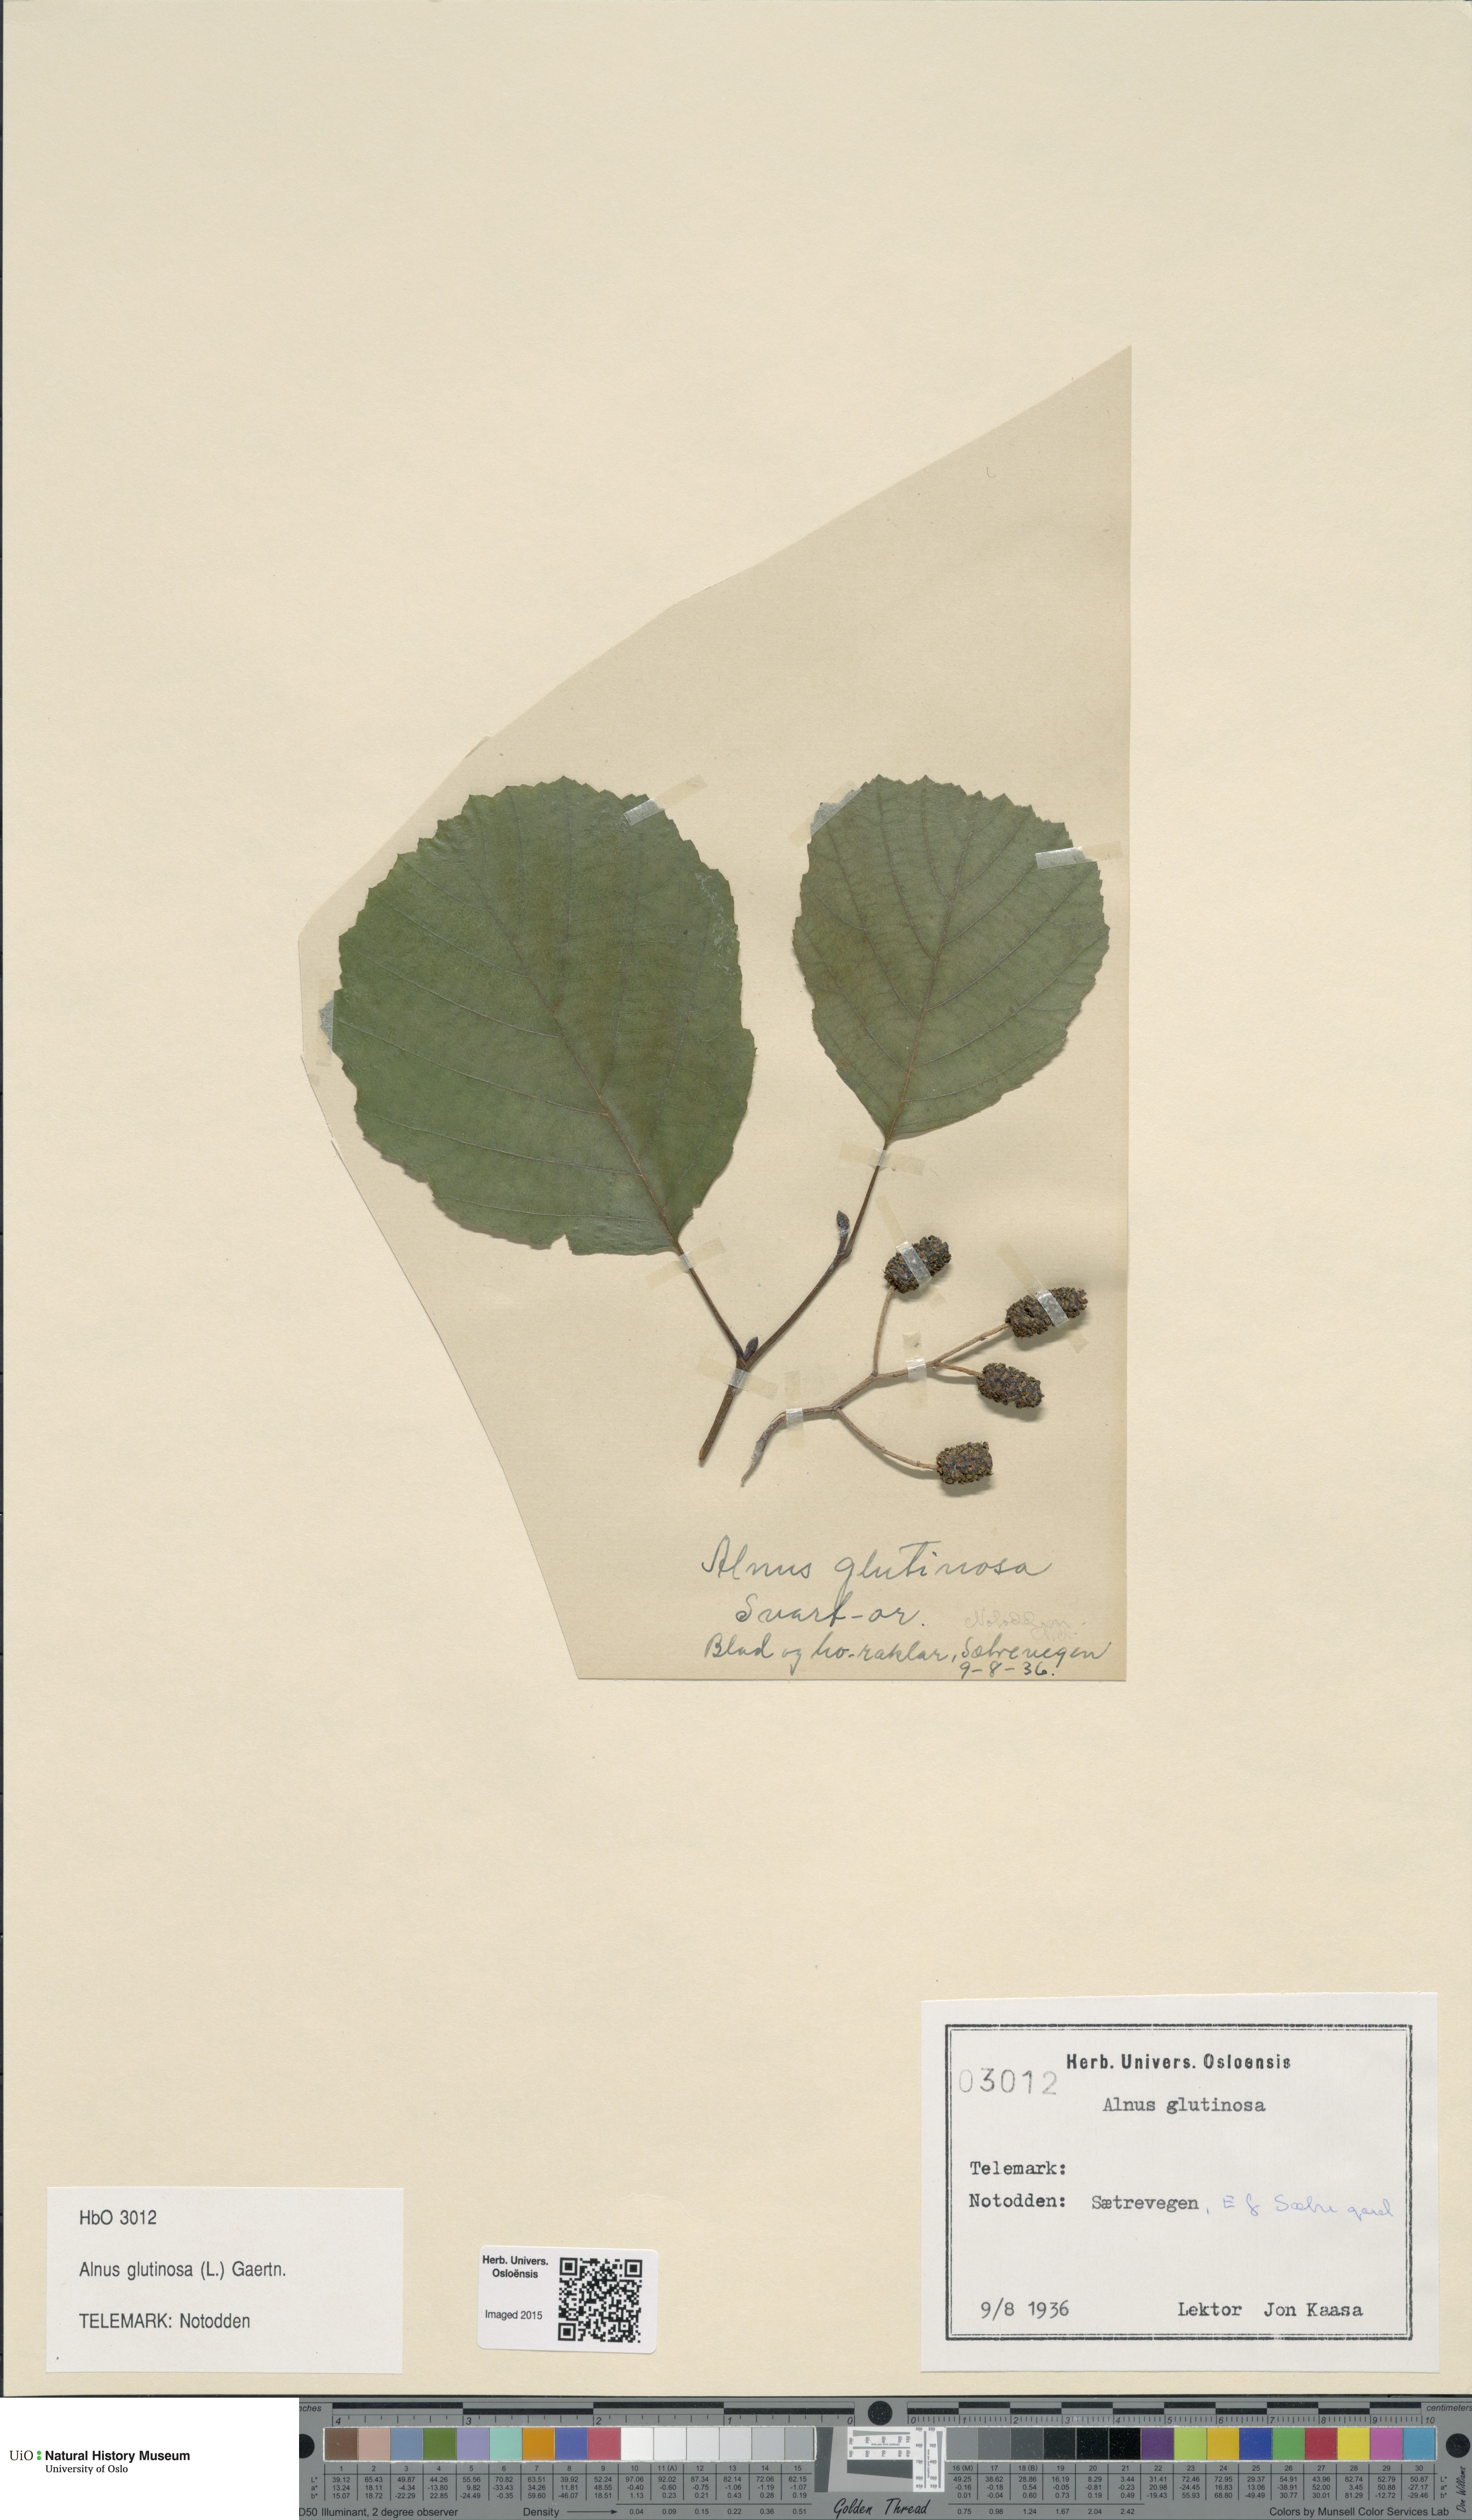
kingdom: Plantae
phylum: Tracheophyta
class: Magnoliopsida
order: Fagales
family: Betulaceae
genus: Alnus
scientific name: Alnus glutinosa
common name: Black alder
